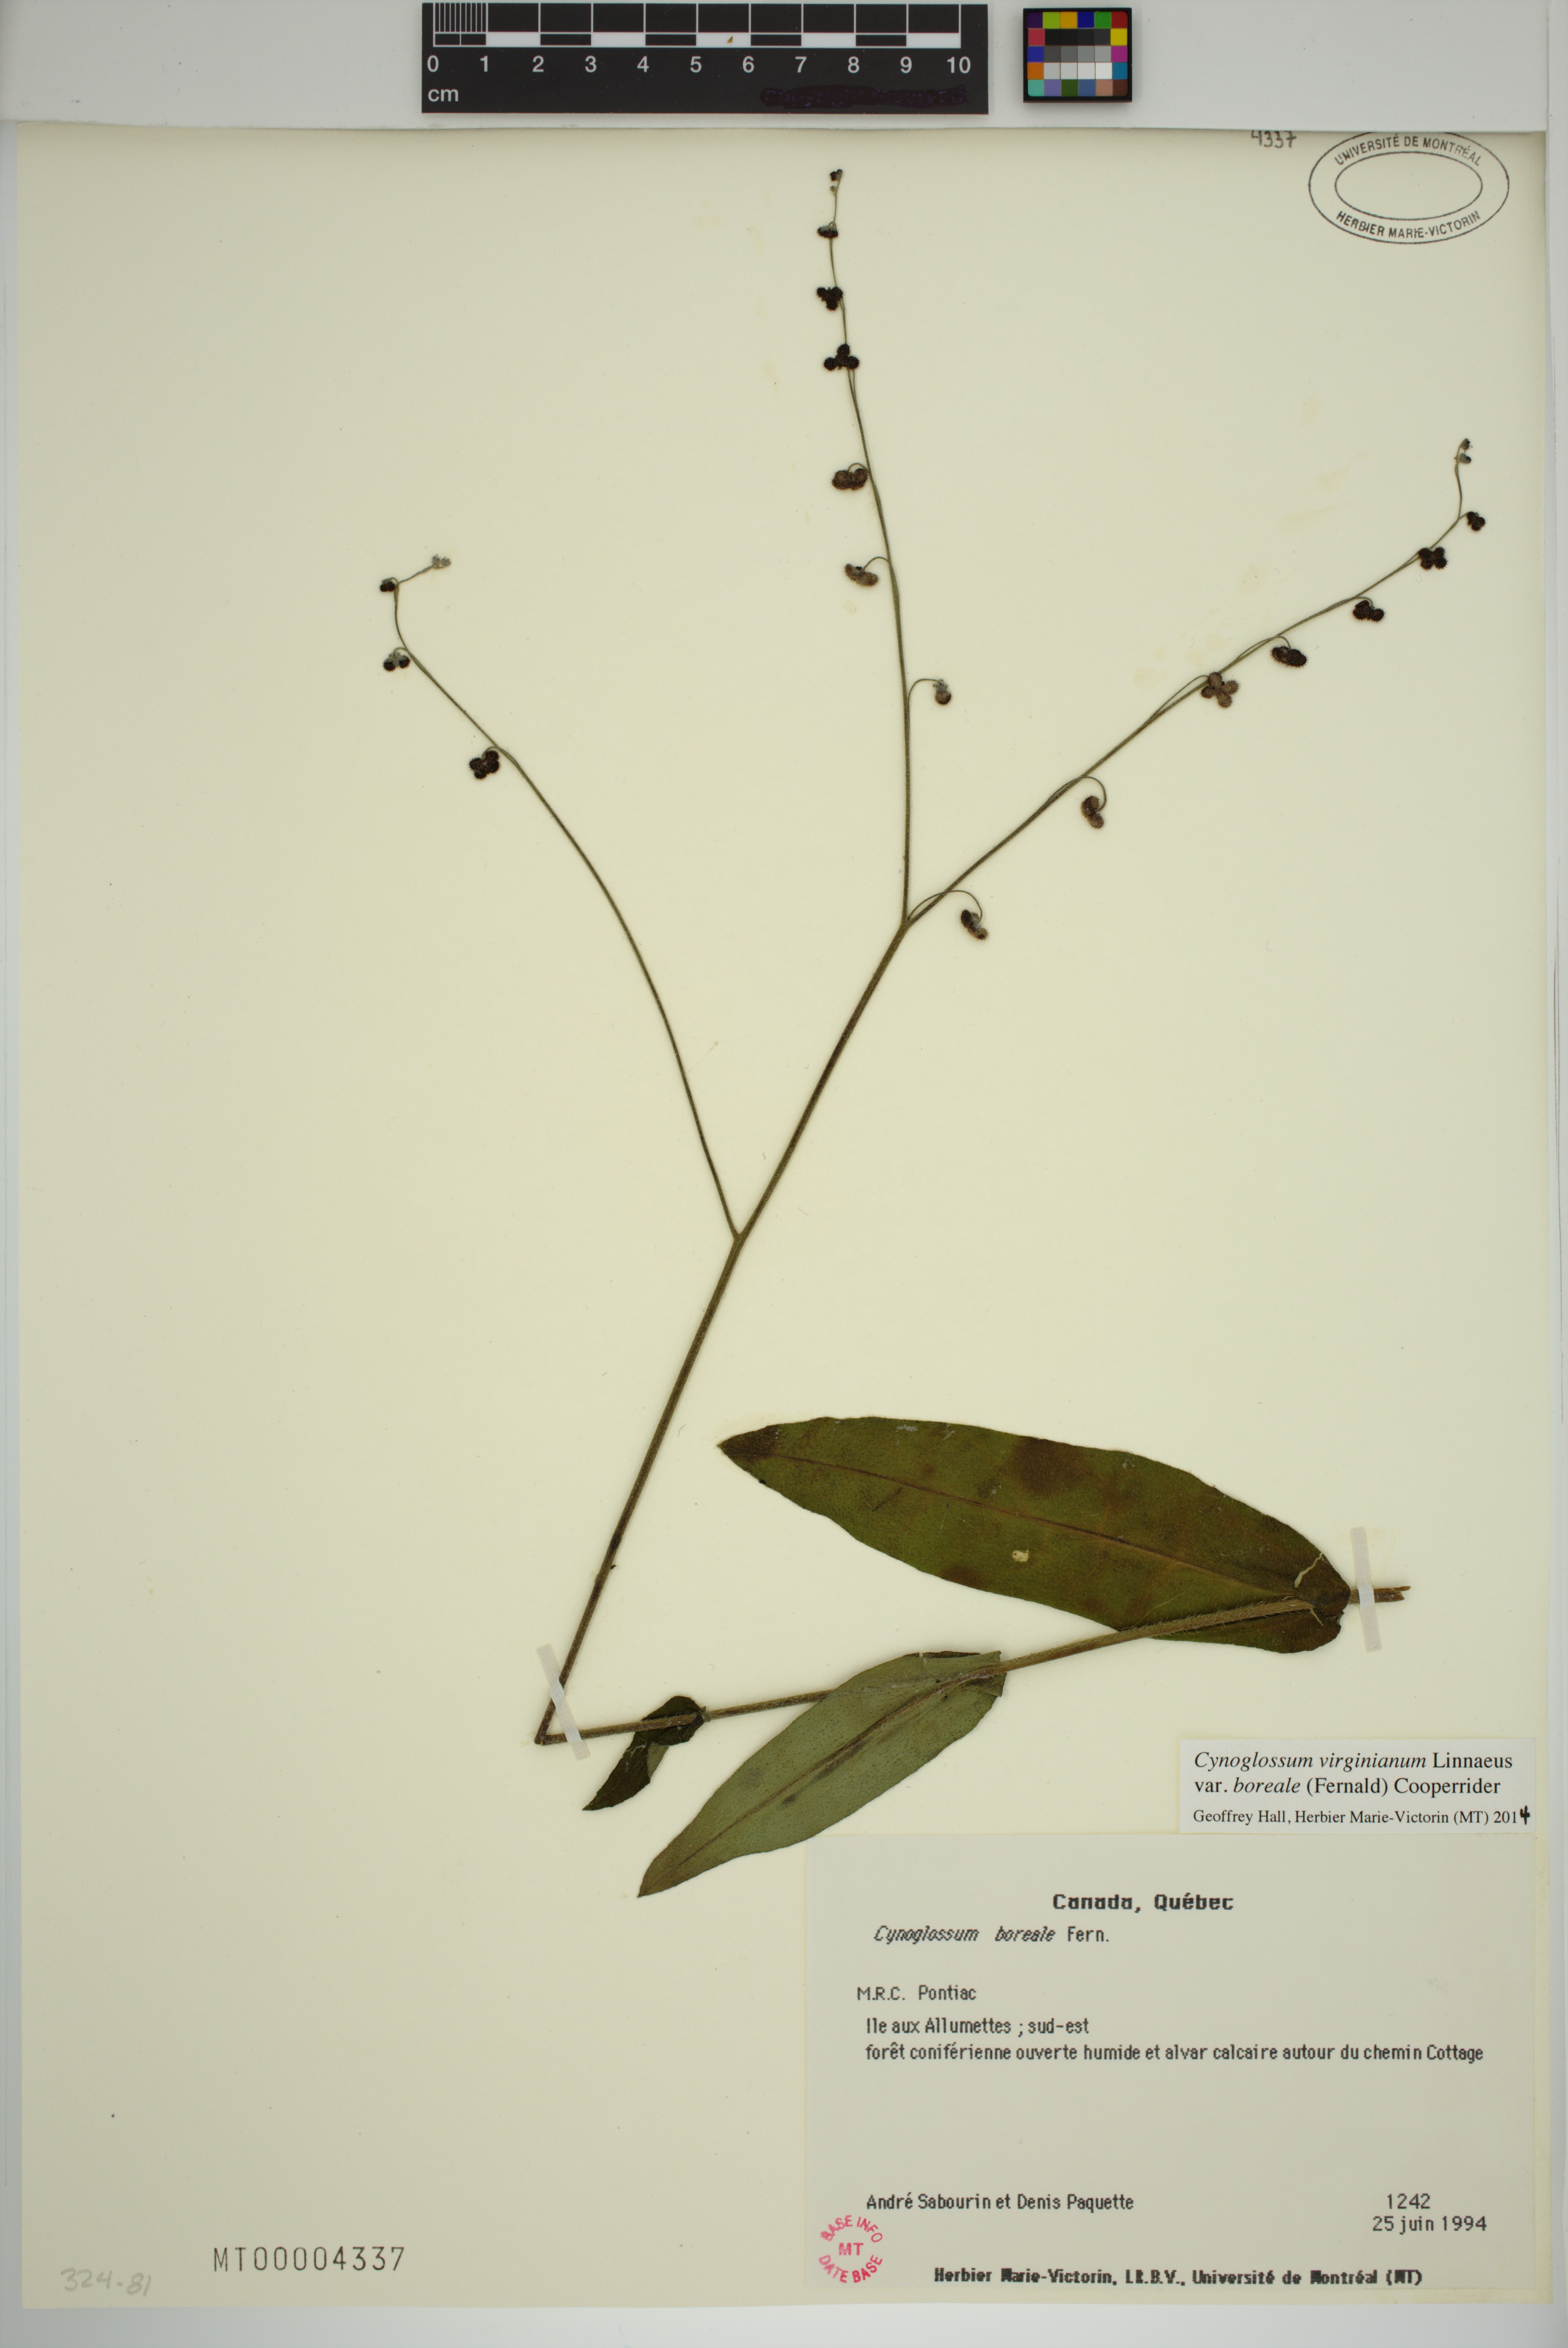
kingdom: Plantae
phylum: Tracheophyta
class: Magnoliopsida
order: Boraginales
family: Boraginaceae
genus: Andersonglossum
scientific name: Andersonglossum boreale
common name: Northern hound's-tongue
